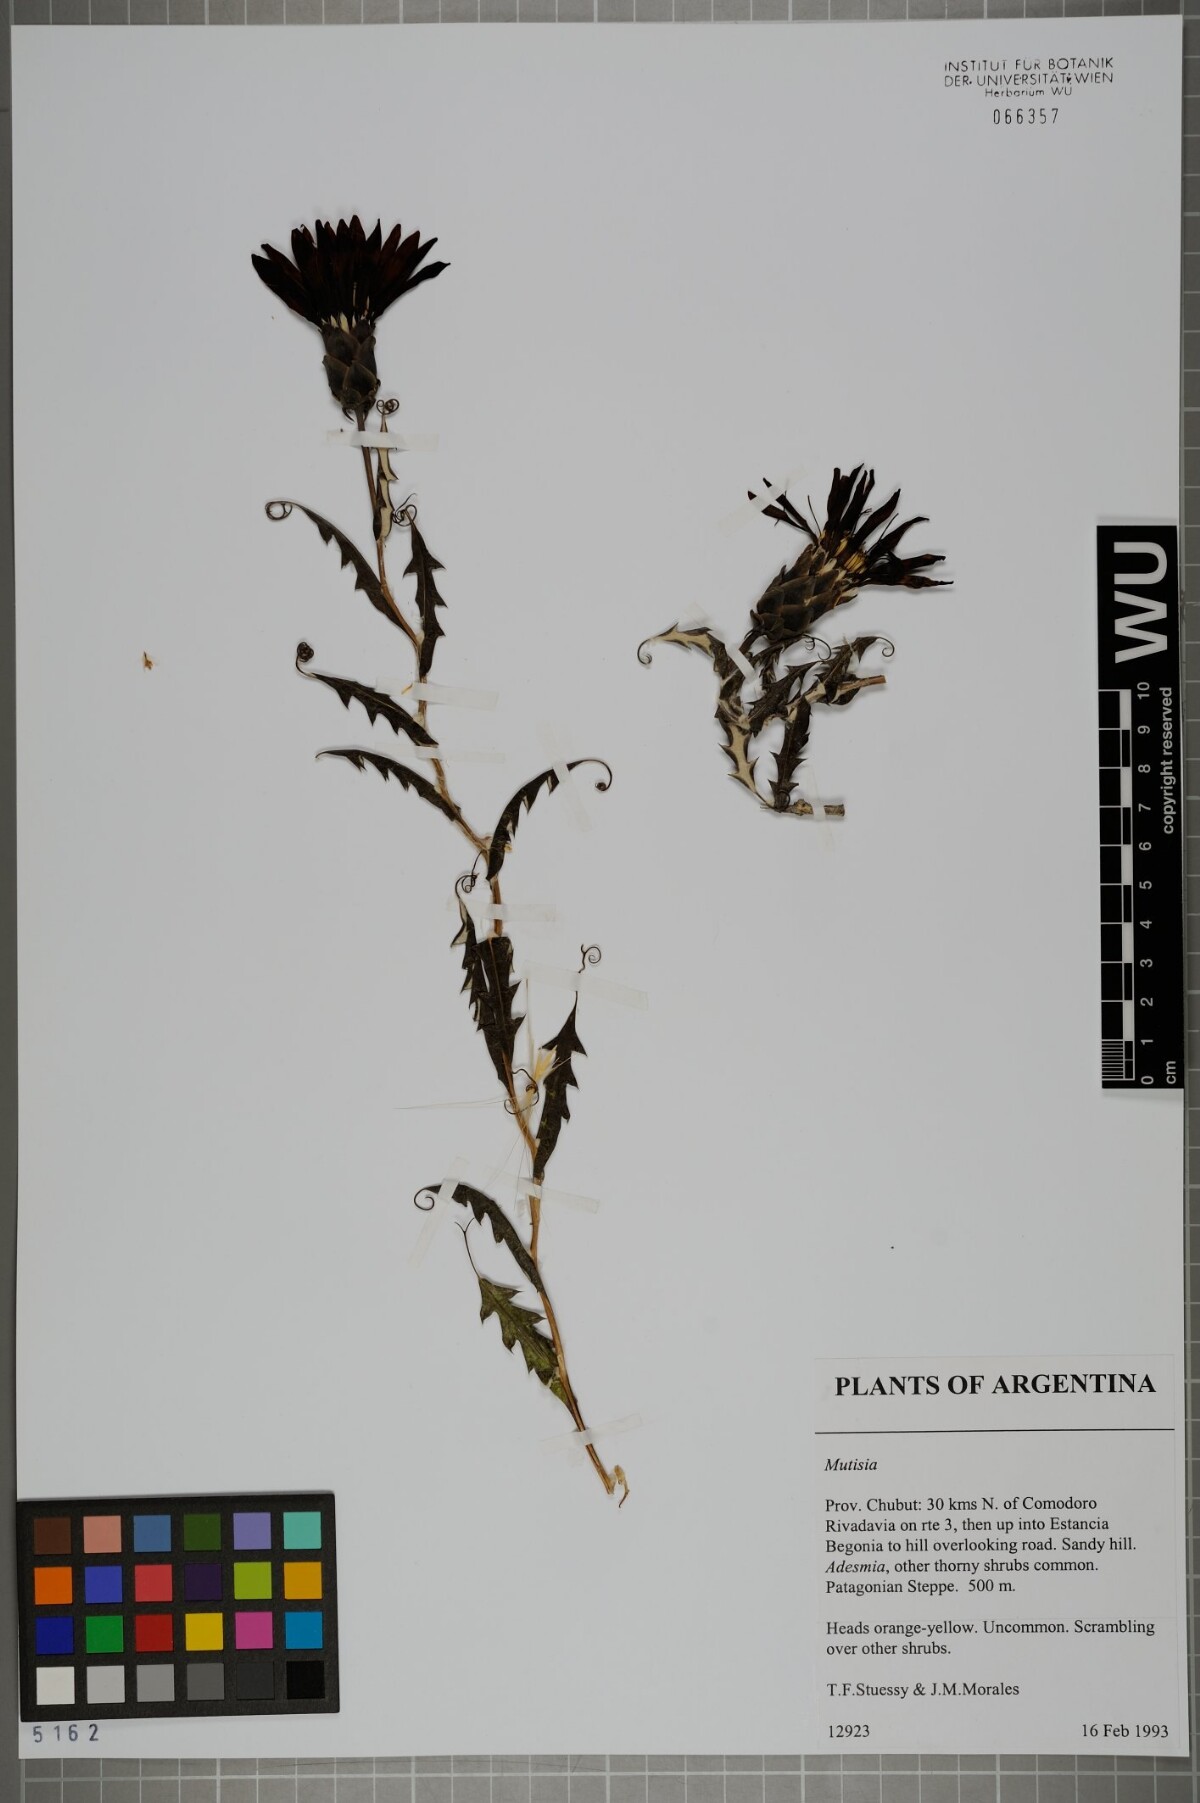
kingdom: Plantae
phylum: Tracheophyta
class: Magnoliopsida
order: Asterales
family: Asteraceae
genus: Mutisia
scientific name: Mutisia retrorsa
